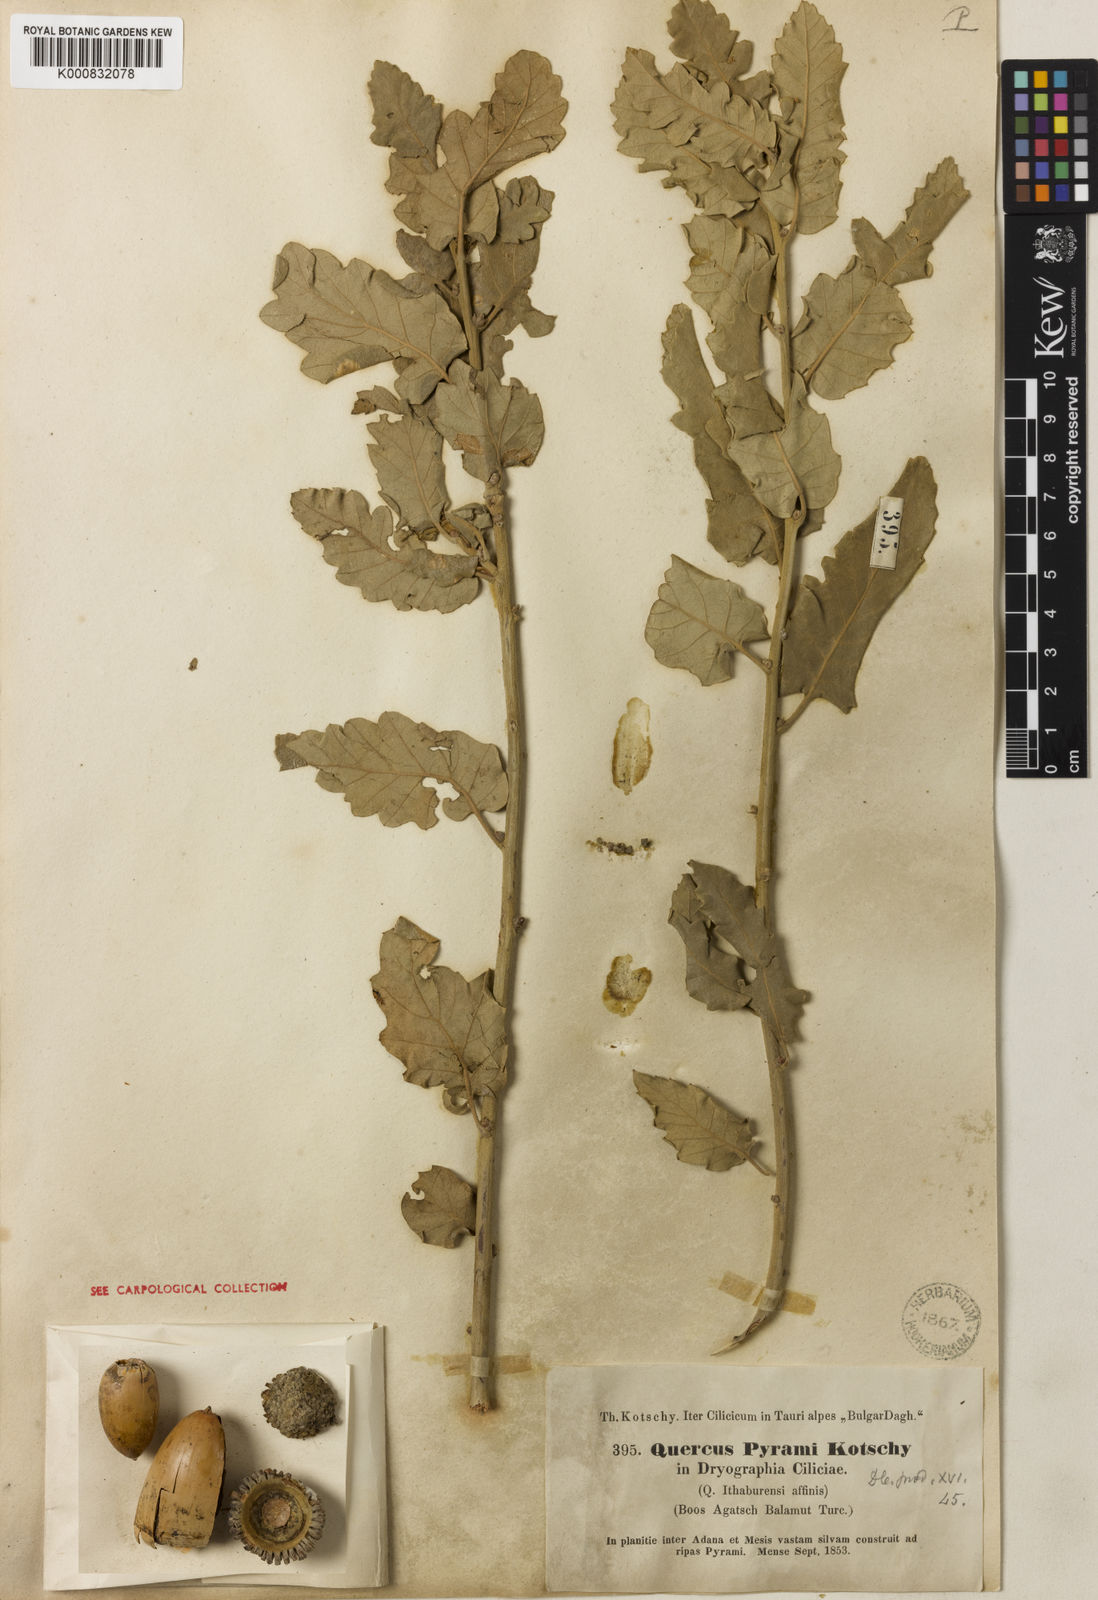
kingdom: Plantae
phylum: Tracheophyta
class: Magnoliopsida
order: Fagales
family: Fagaceae
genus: Quercus
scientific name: Quercus cerris
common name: Turkey oak
